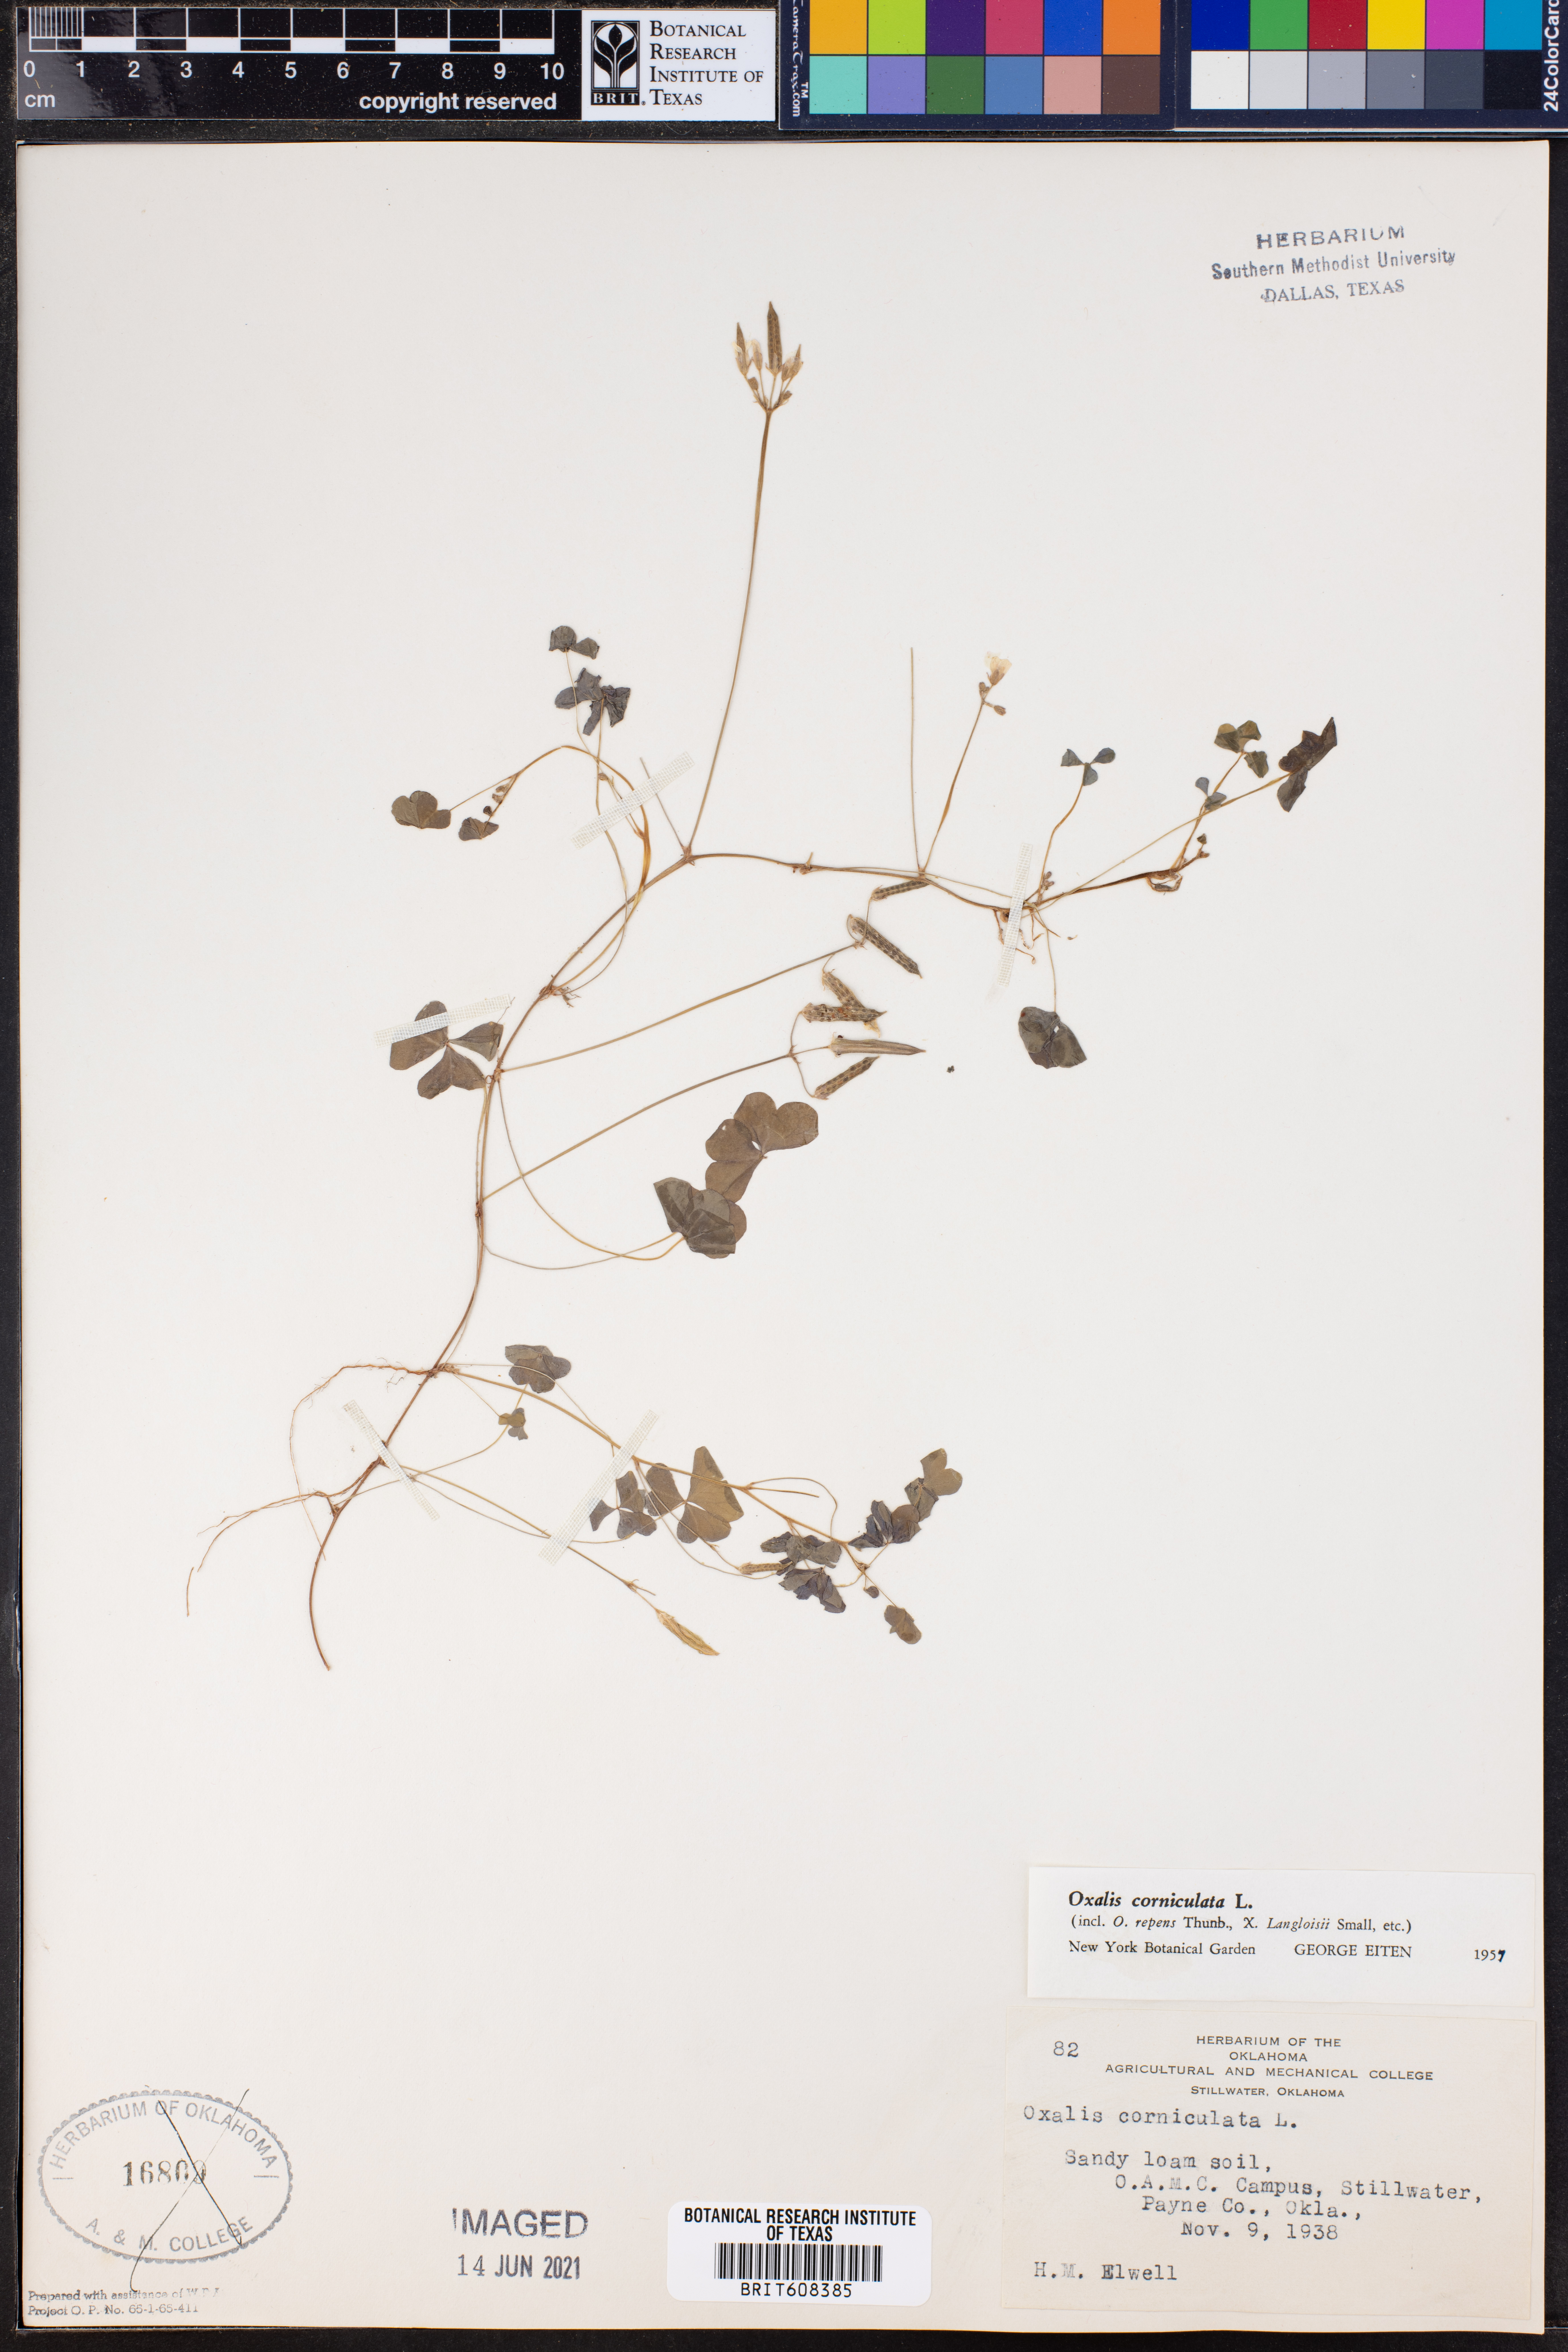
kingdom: Plantae
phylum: Tracheophyta
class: Magnoliopsida
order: Oxalidales
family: Oxalidaceae
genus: Oxalis
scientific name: Oxalis corniculata
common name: Procumbent yellow-sorrel
